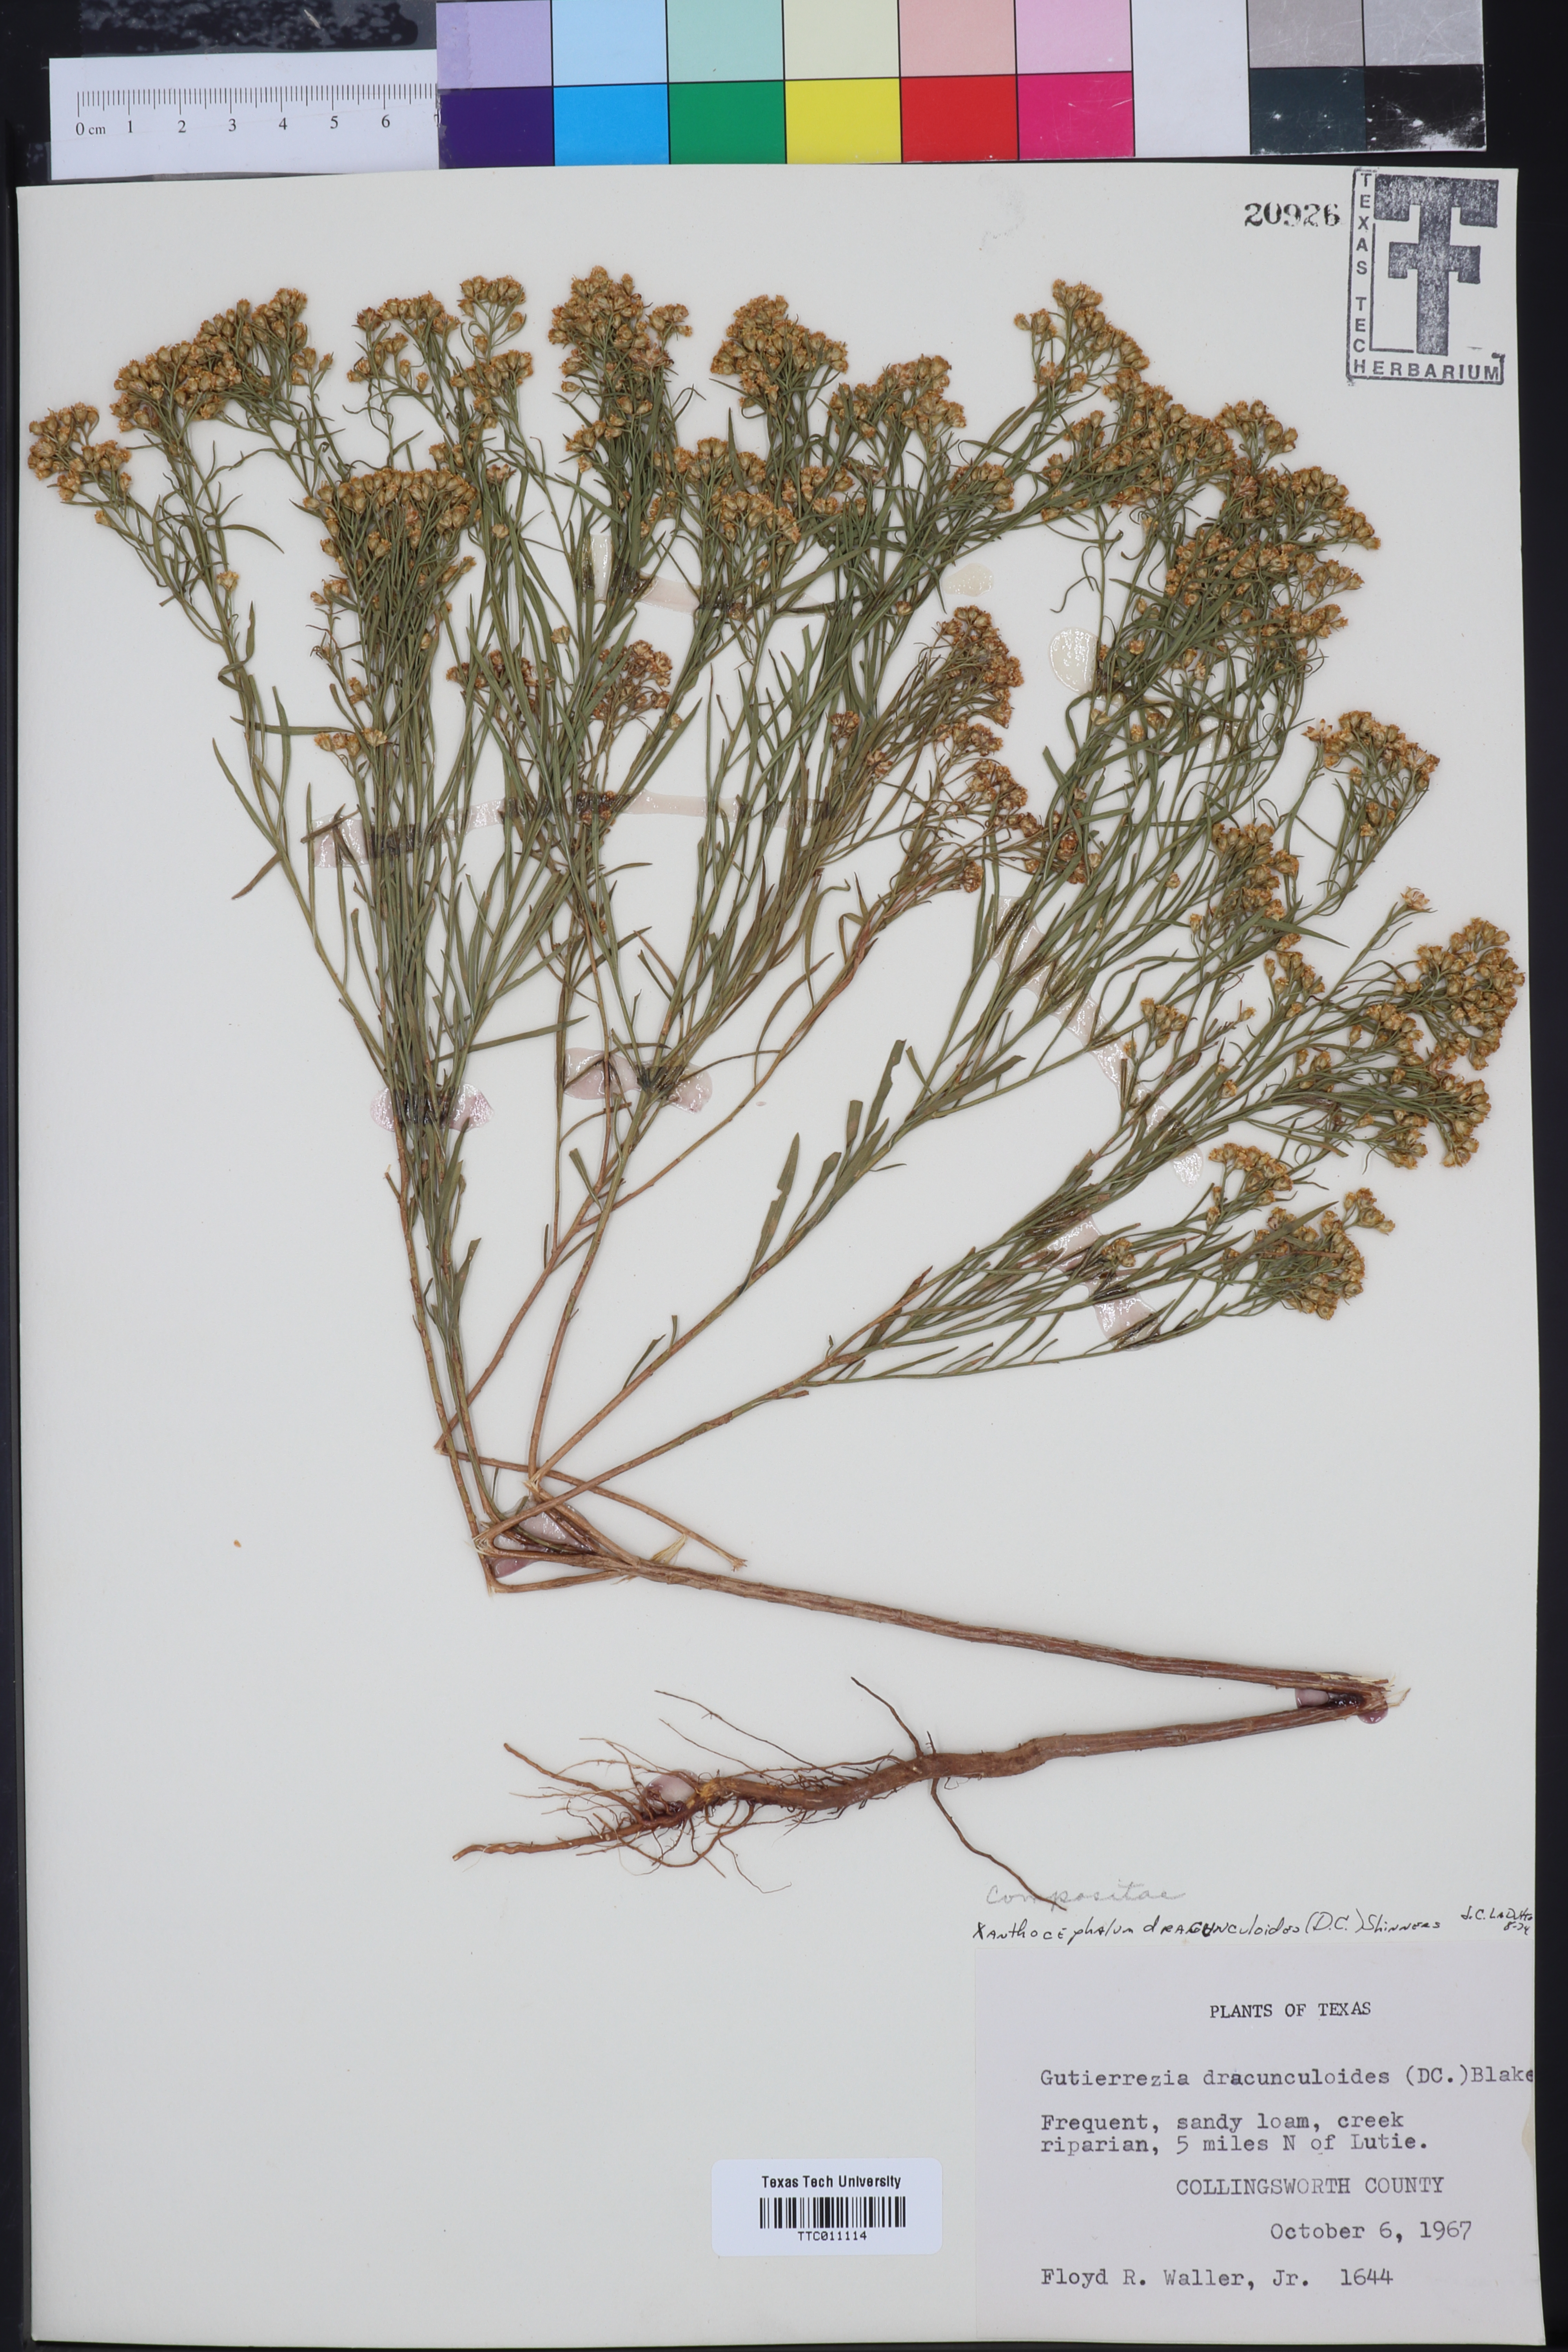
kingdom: Plantae
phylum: Tracheophyta
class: Magnoliopsida
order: Asterales
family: Asteraceae
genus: Amphiachyris
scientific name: Amphiachyris dracunculoides
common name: Broomweed
